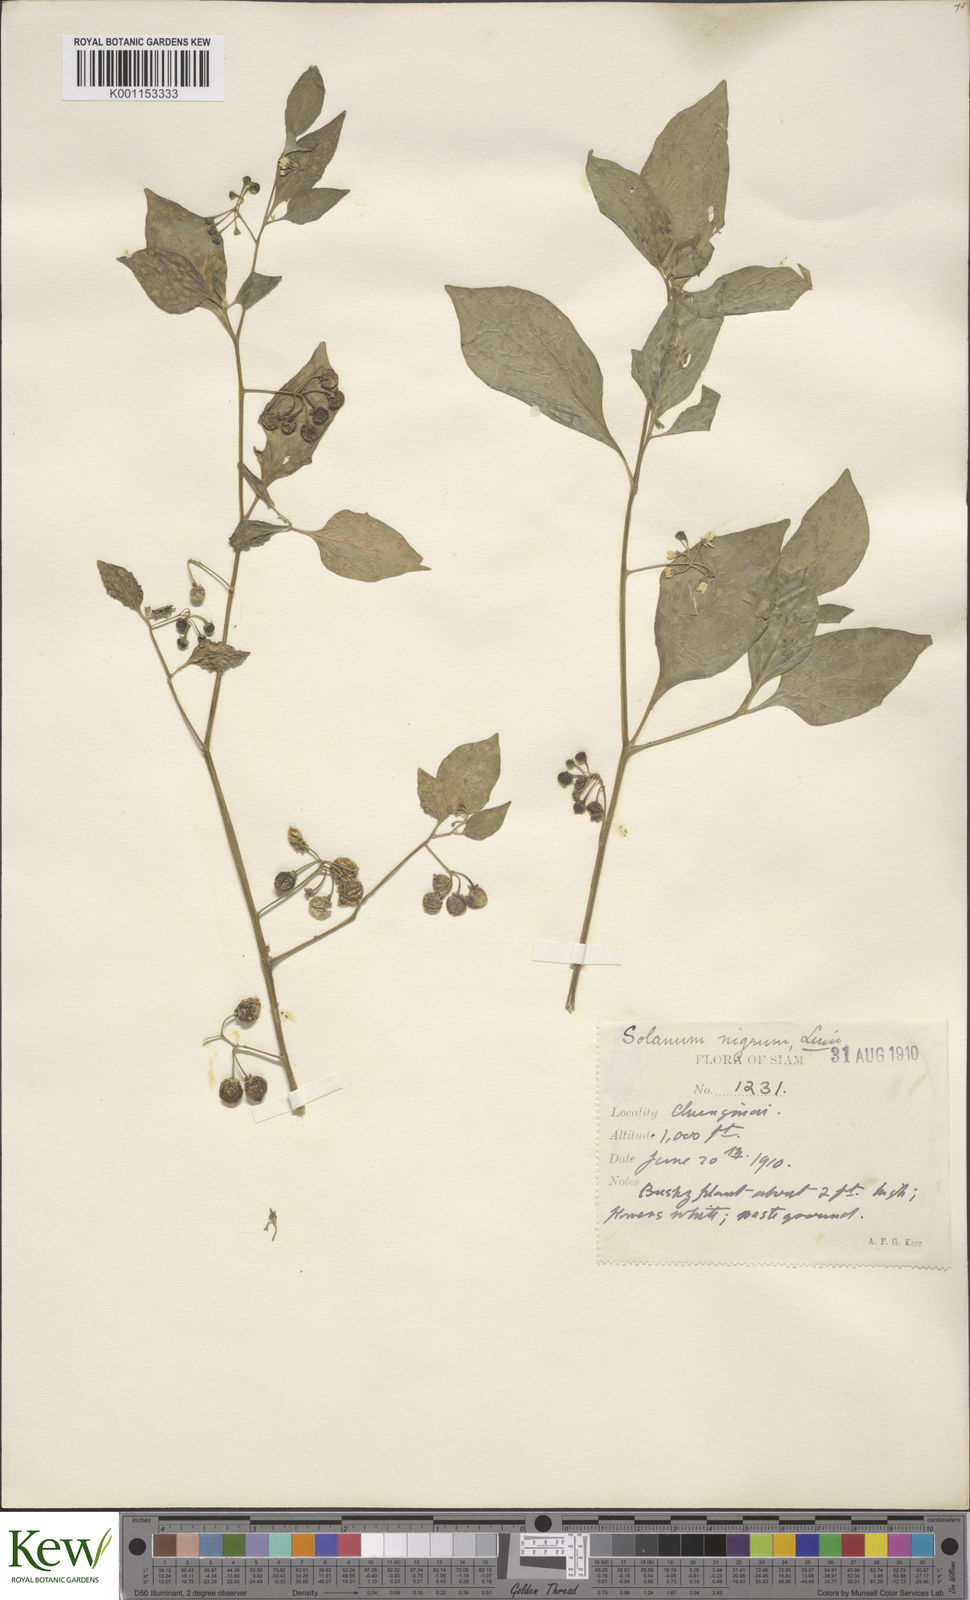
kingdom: Plantae
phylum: Tracheophyta
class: Magnoliopsida
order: Solanales
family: Solanaceae
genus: Solanum
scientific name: Solanum nigrum
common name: Black nightshade
